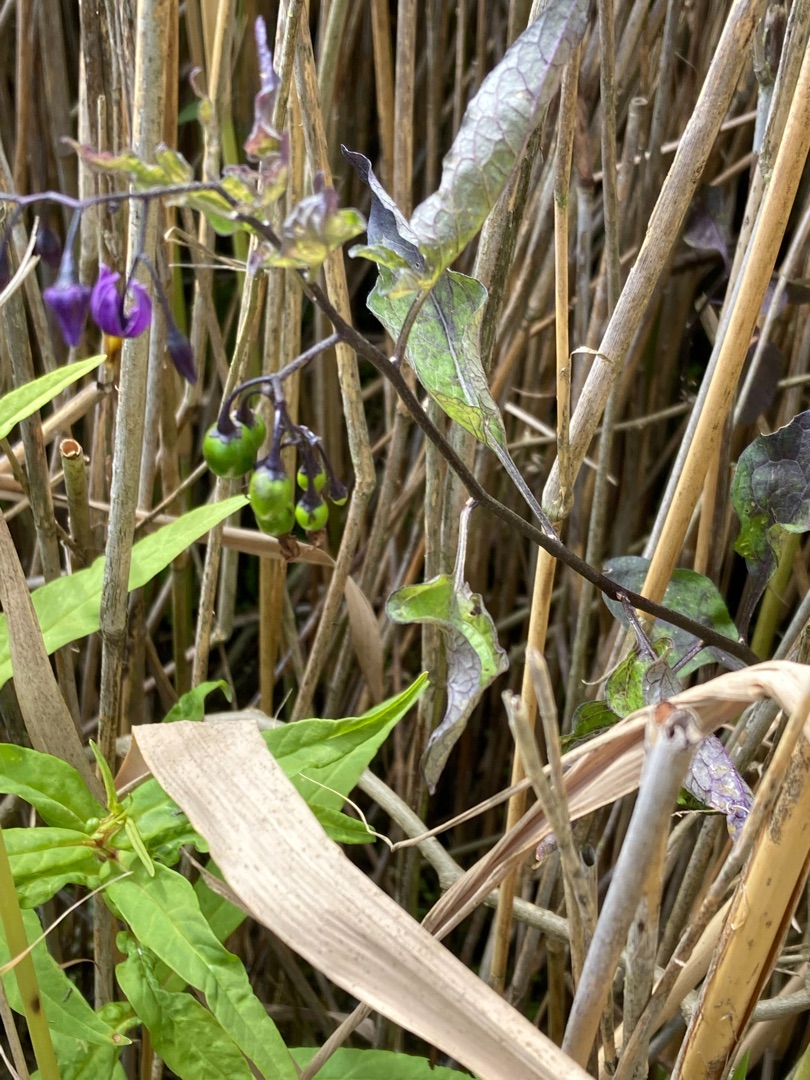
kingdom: Plantae
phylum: Tracheophyta
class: Magnoliopsida
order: Solanales
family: Solanaceae
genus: Solanum
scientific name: Solanum dulcamara
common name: Bittersød natskygge
